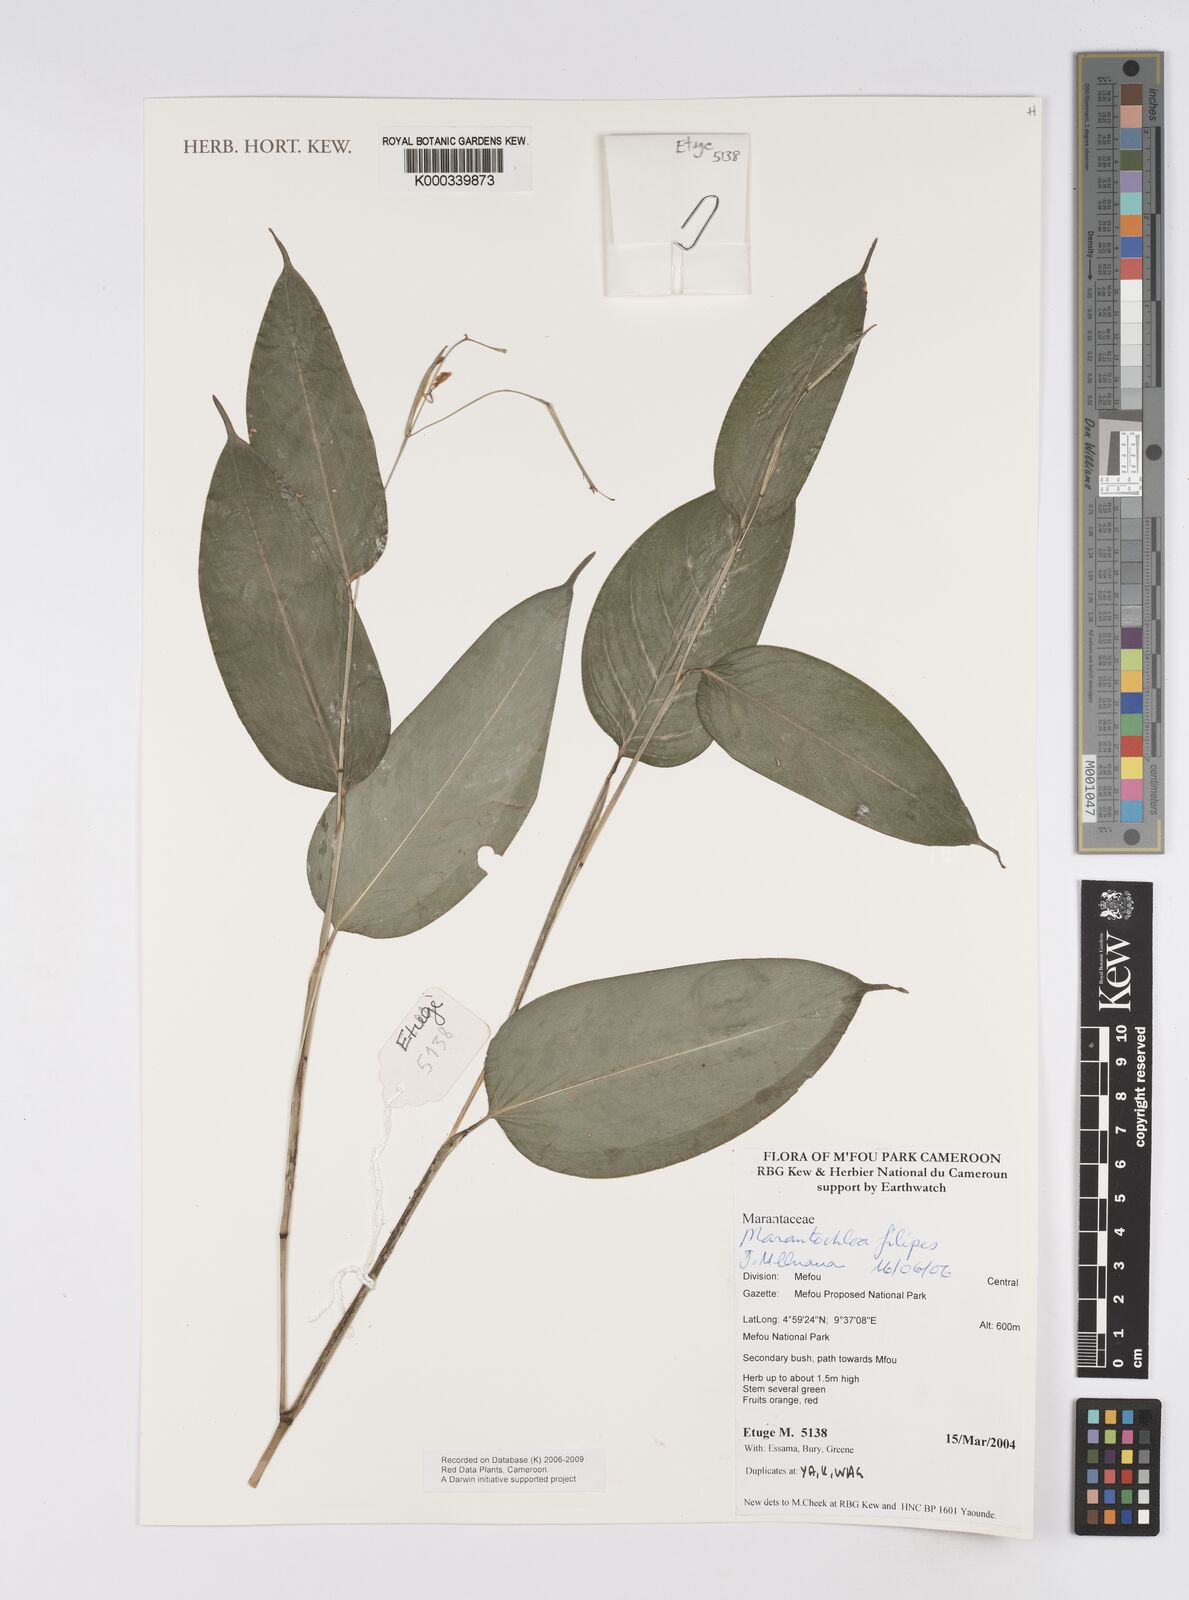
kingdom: Plantae
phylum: Tracheophyta
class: Liliopsida
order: Zingiberales
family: Marantaceae
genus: Marantochloa
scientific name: Marantochloa filipes
